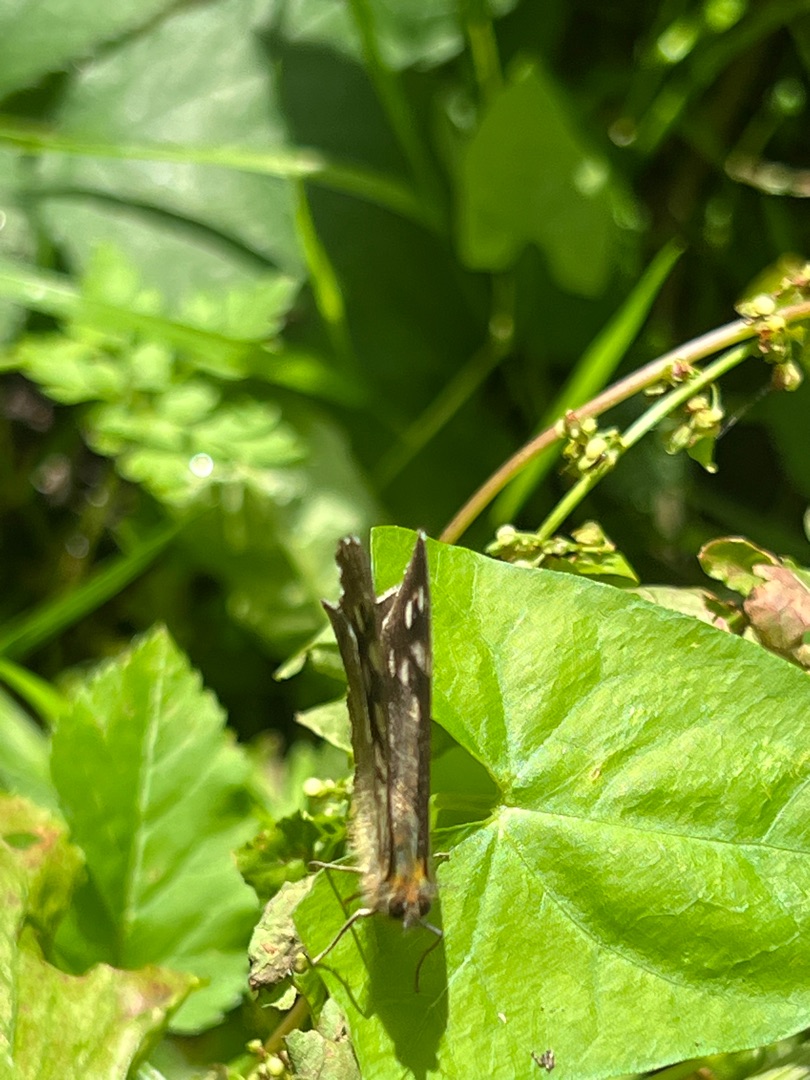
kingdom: Animalia
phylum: Arthropoda
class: Insecta
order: Lepidoptera
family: Nymphalidae
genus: Pararge
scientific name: Pararge aegeria
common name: Skovrandøje
